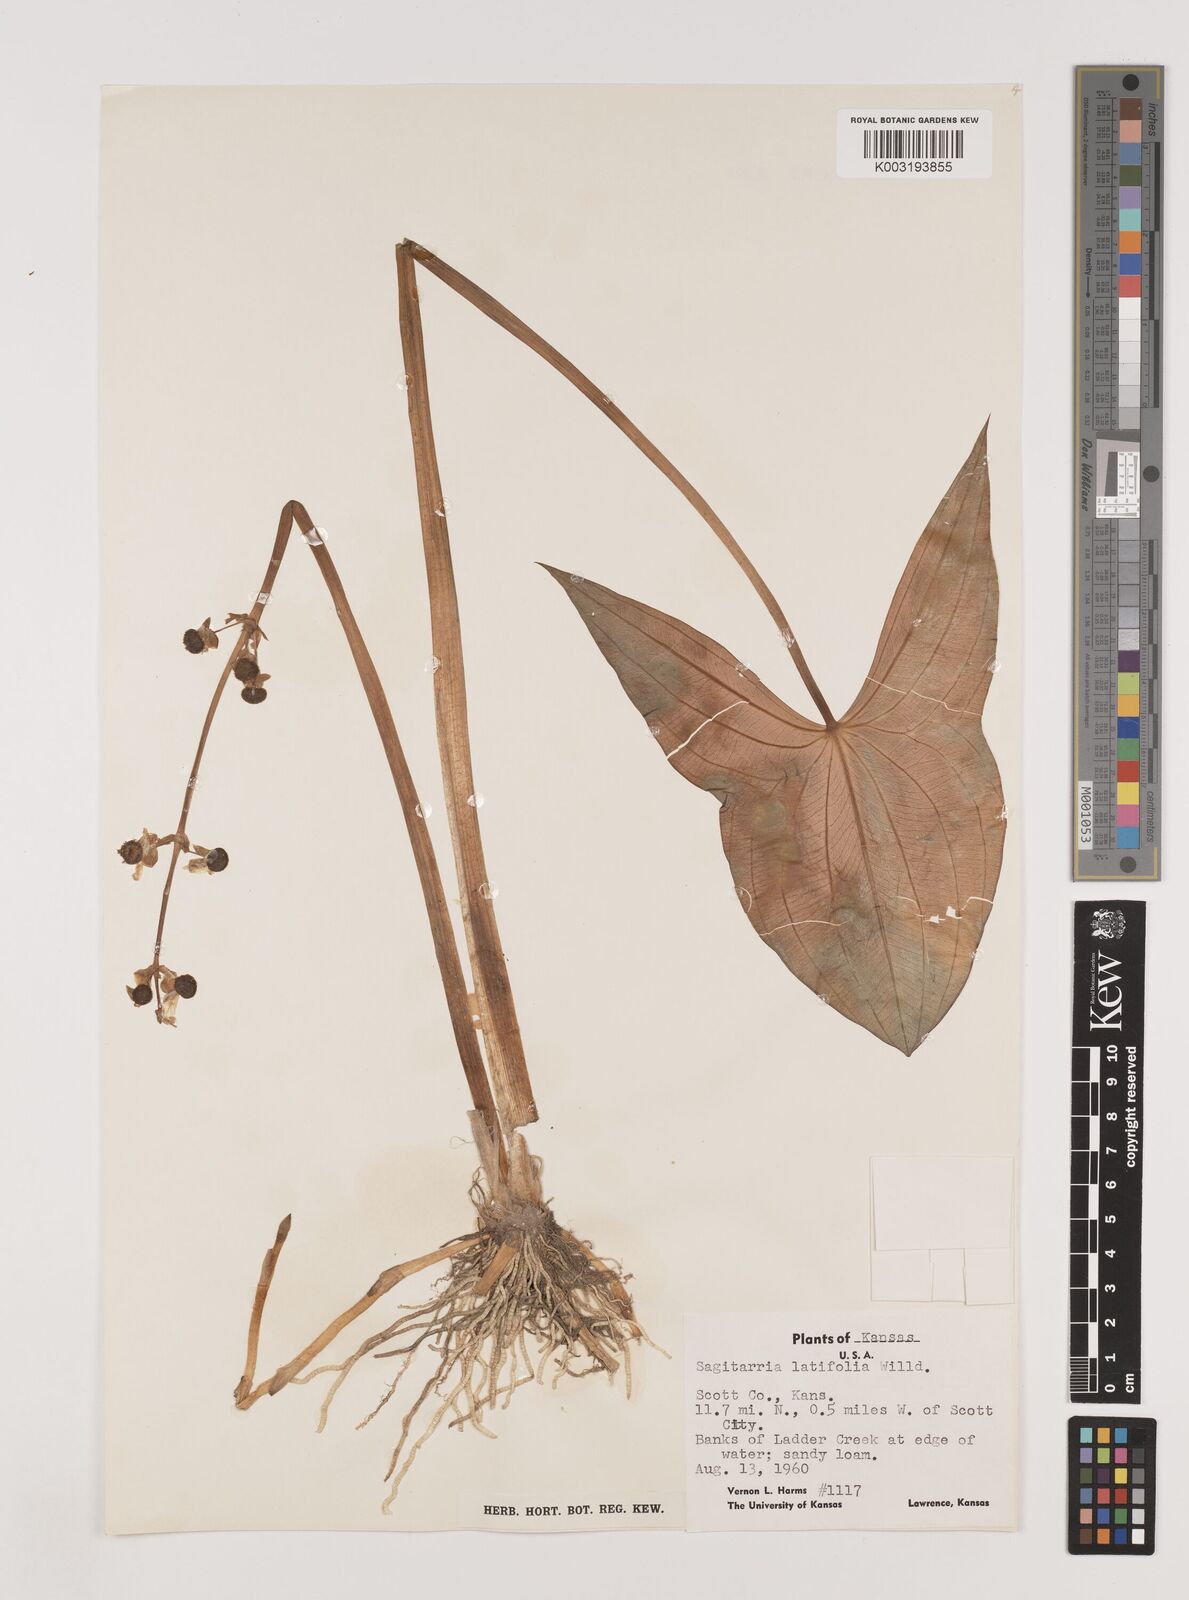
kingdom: Plantae
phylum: Tracheophyta
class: Liliopsida
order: Alismatales
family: Alismataceae
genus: Sagittaria
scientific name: Sagittaria latifolia
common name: Duck-potato
